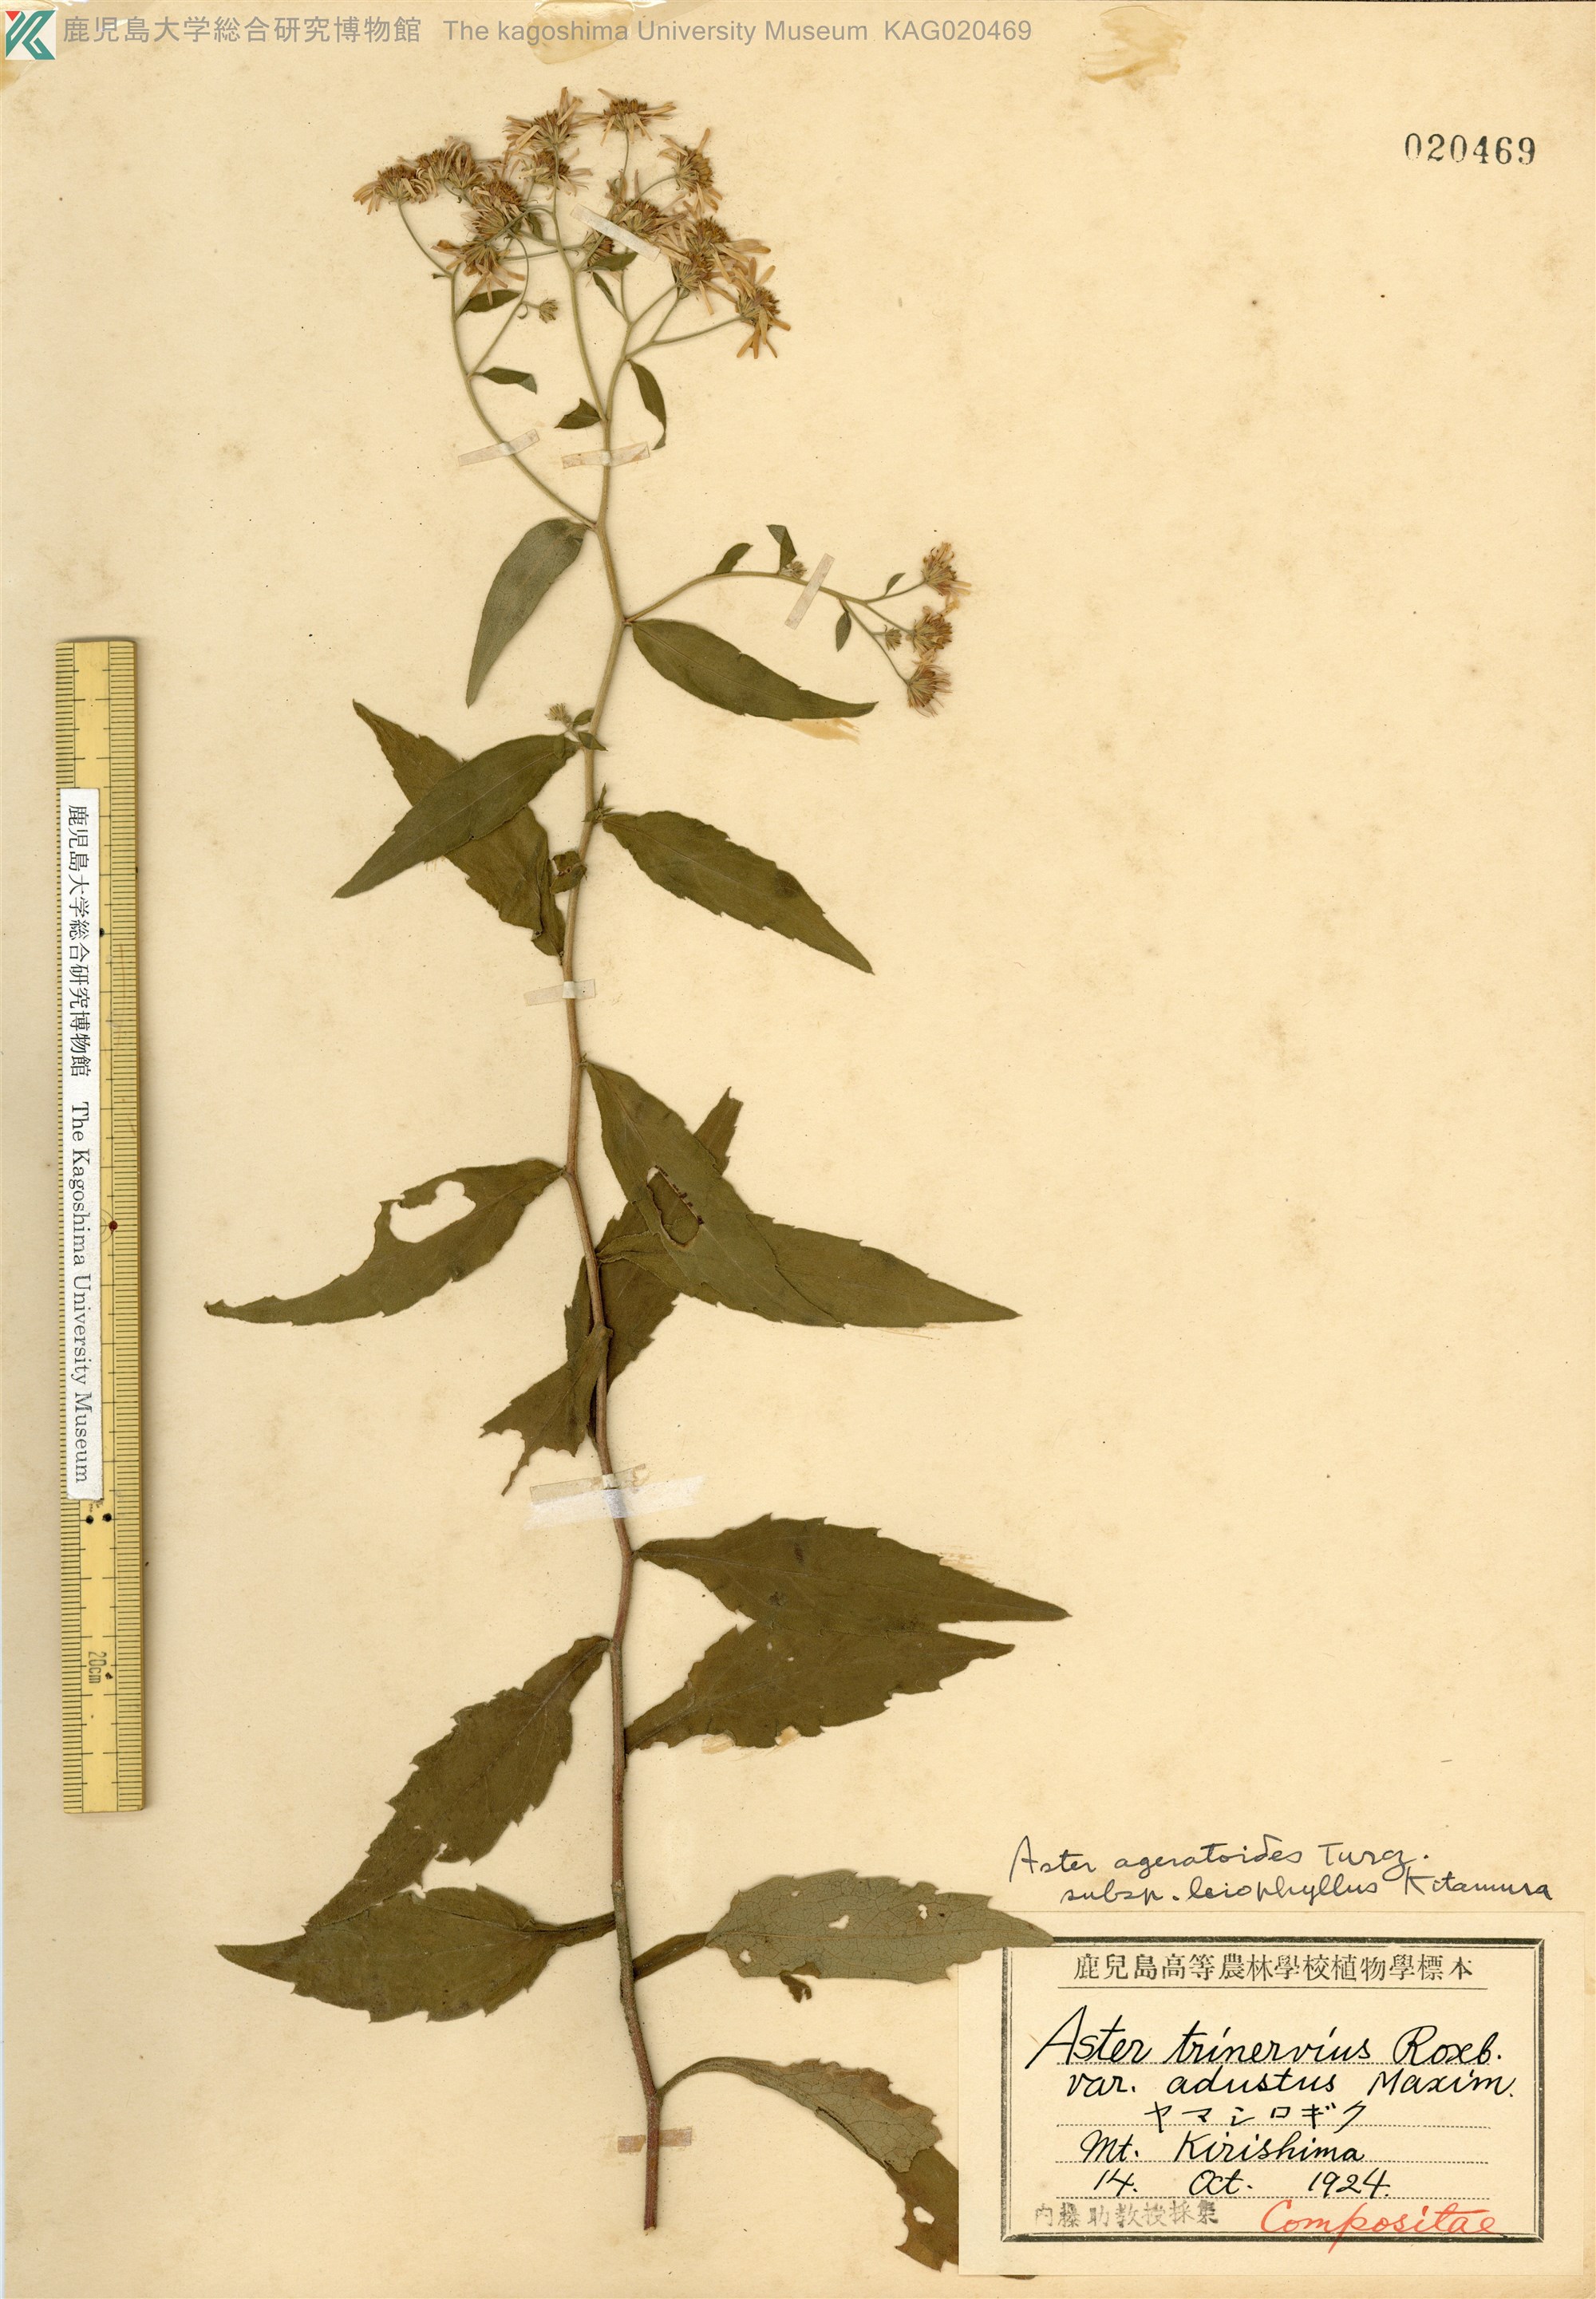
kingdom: Plantae
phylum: Tracheophyta
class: Magnoliopsida
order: Asterales
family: Asteraceae
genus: Aster
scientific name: Aster satsumensis
